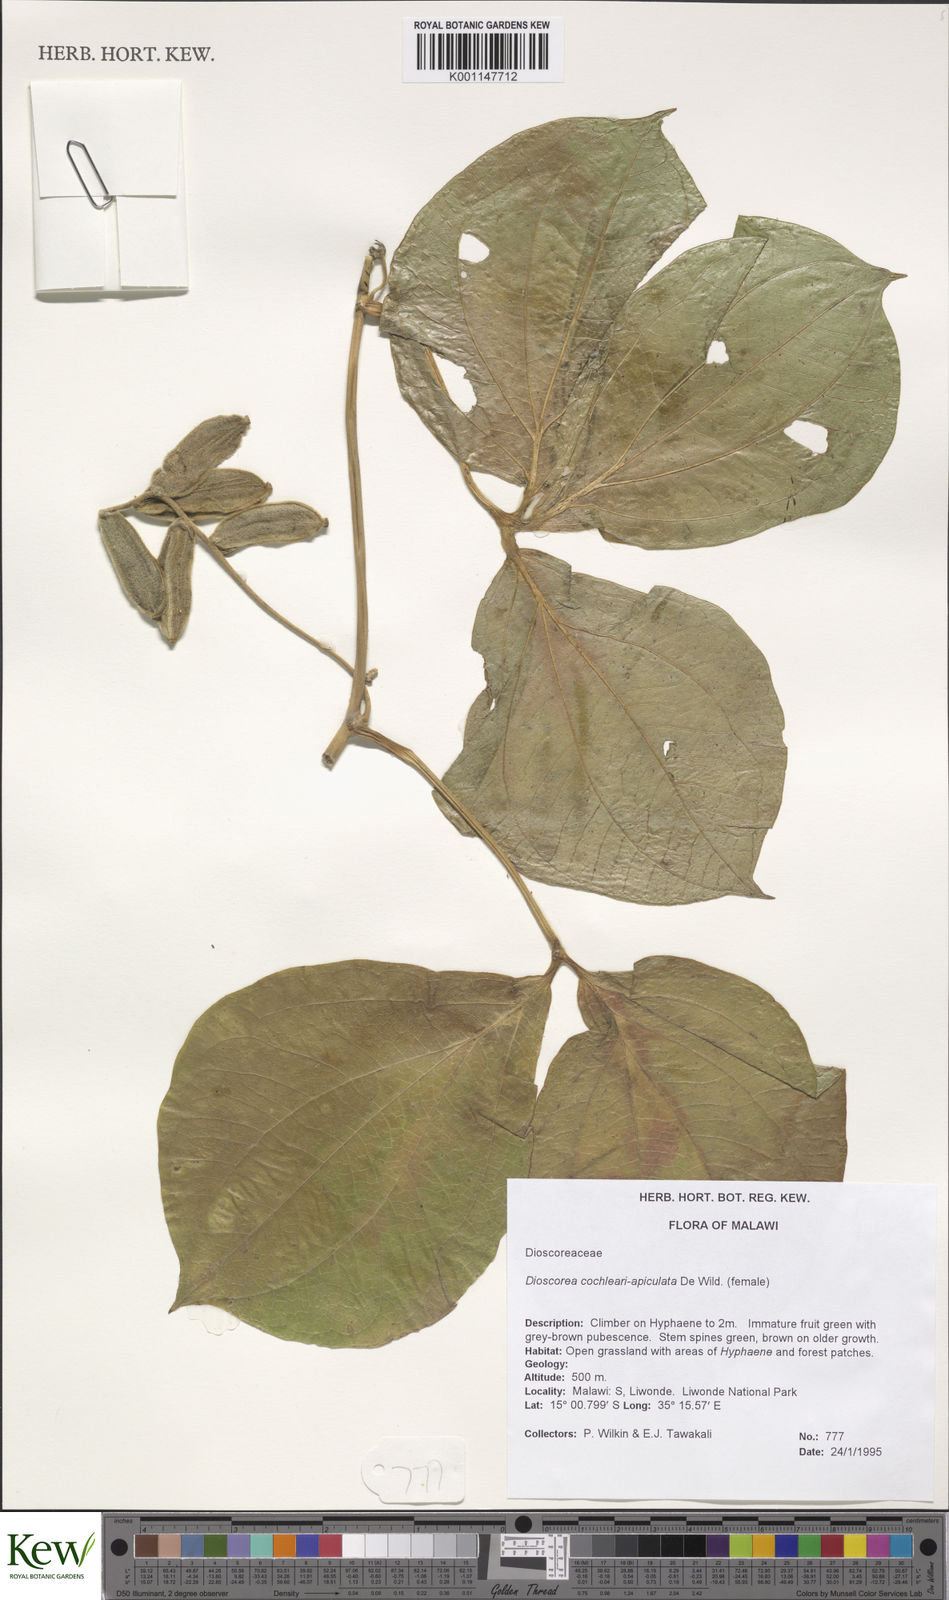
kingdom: Plantae
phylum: Tracheophyta
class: Liliopsida
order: Dioscoreales
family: Dioscoreaceae
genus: Dioscorea
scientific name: Dioscorea cochleariapiculata
